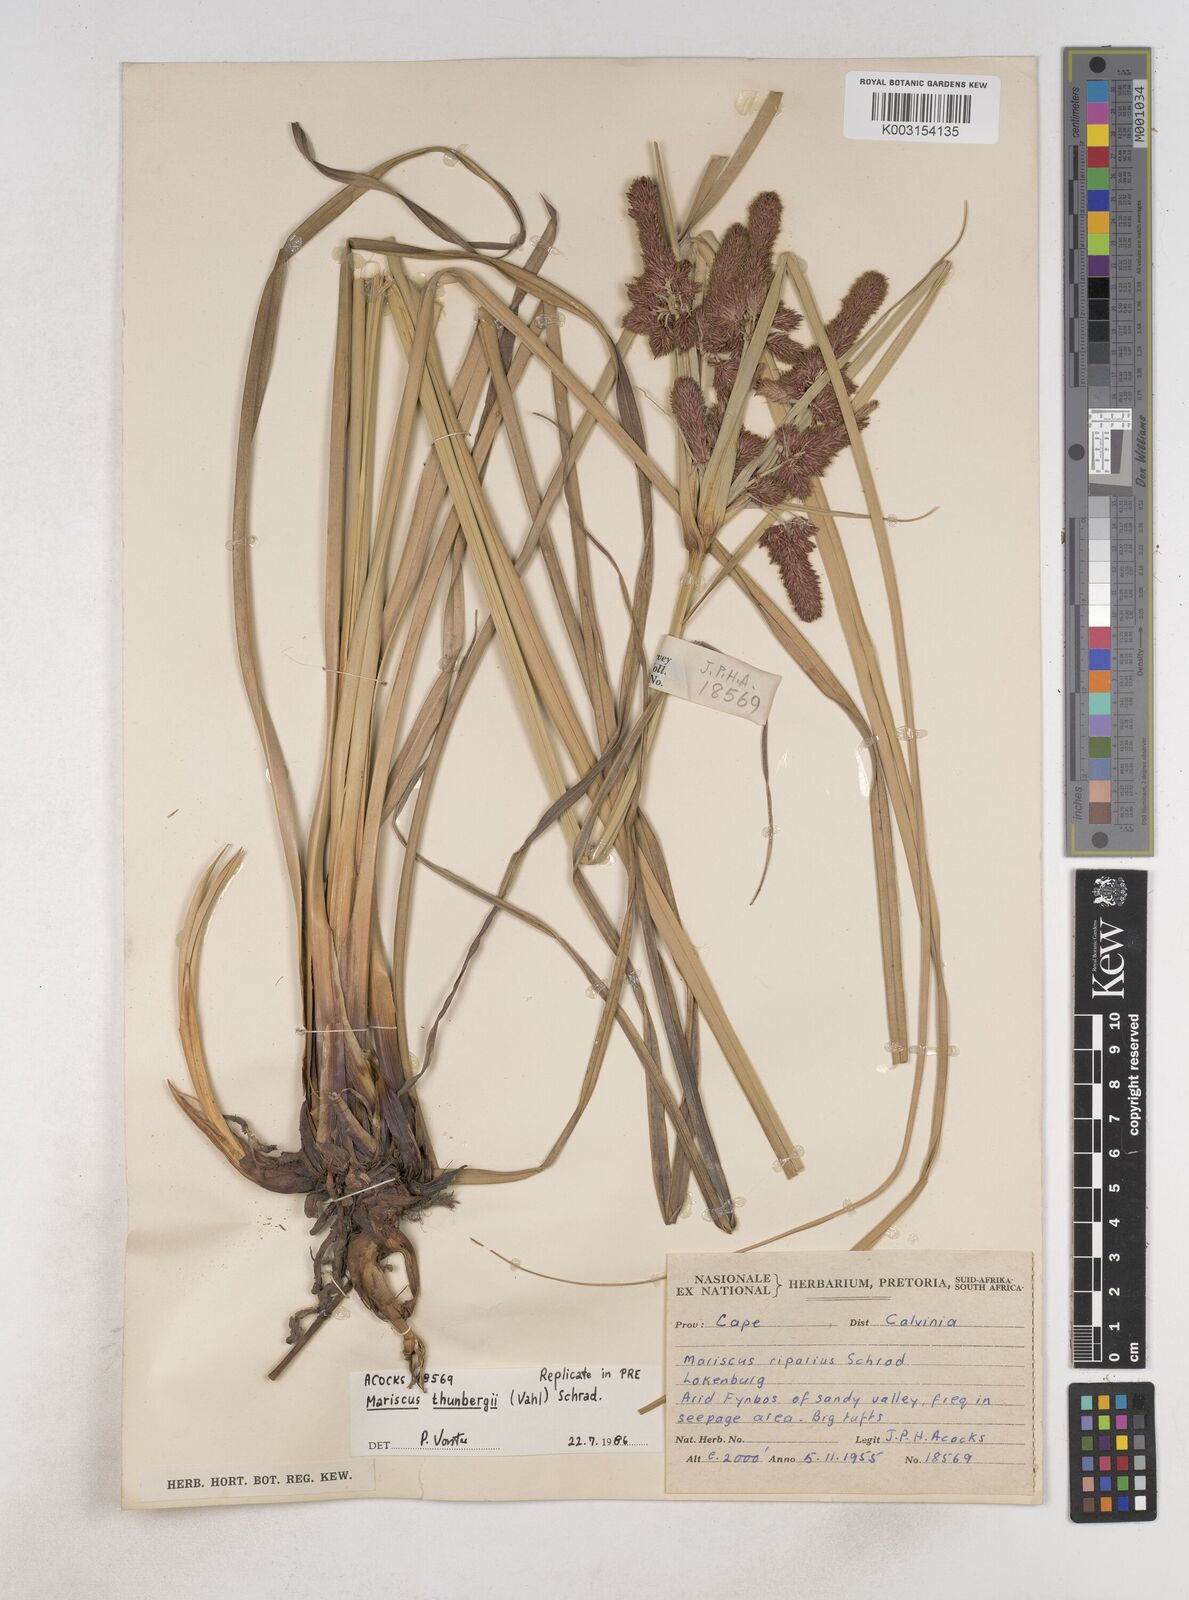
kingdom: Plantae
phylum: Tracheophyta
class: Liliopsida
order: Poales
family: Cyperaceae
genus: Cyperus
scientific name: Cyperus thunbergii
